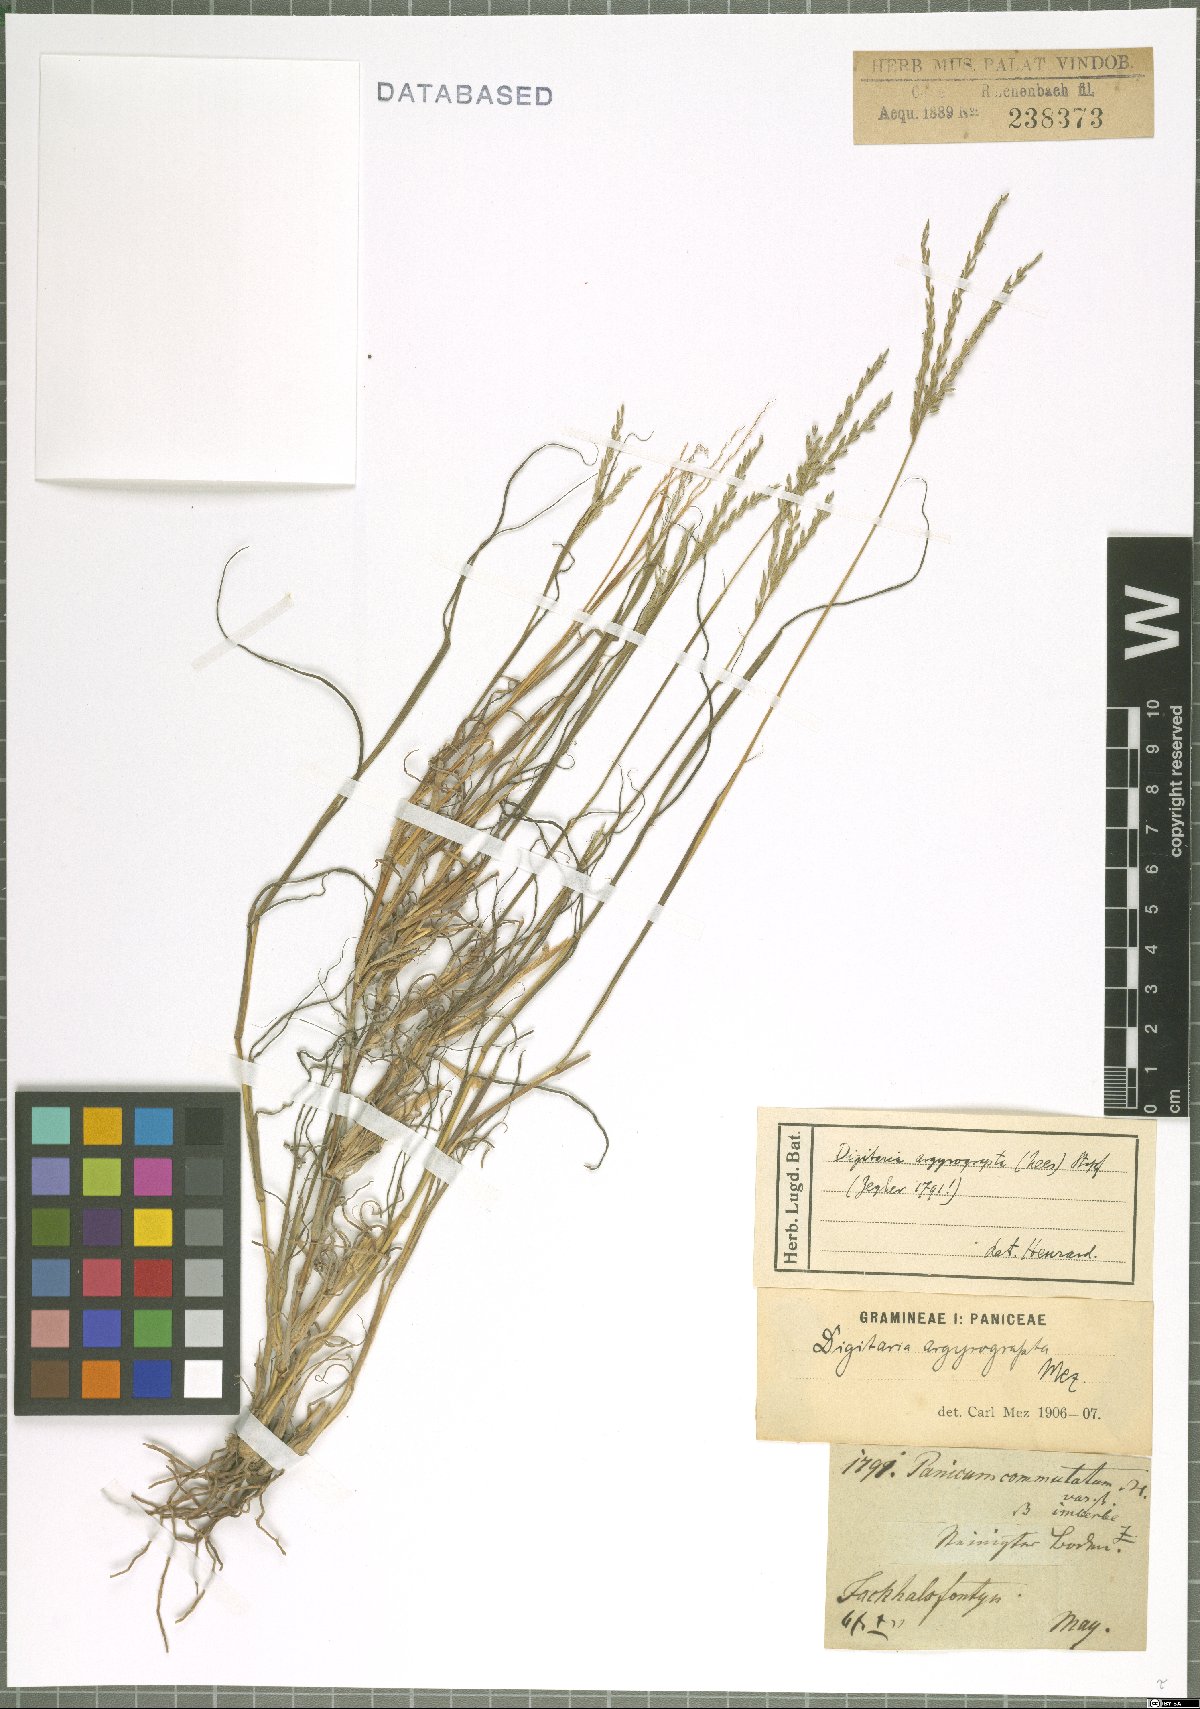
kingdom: Plantae
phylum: Tracheophyta
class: Liliopsida
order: Poales
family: Poaceae
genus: Digitaria
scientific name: Digitaria argyrograpta
